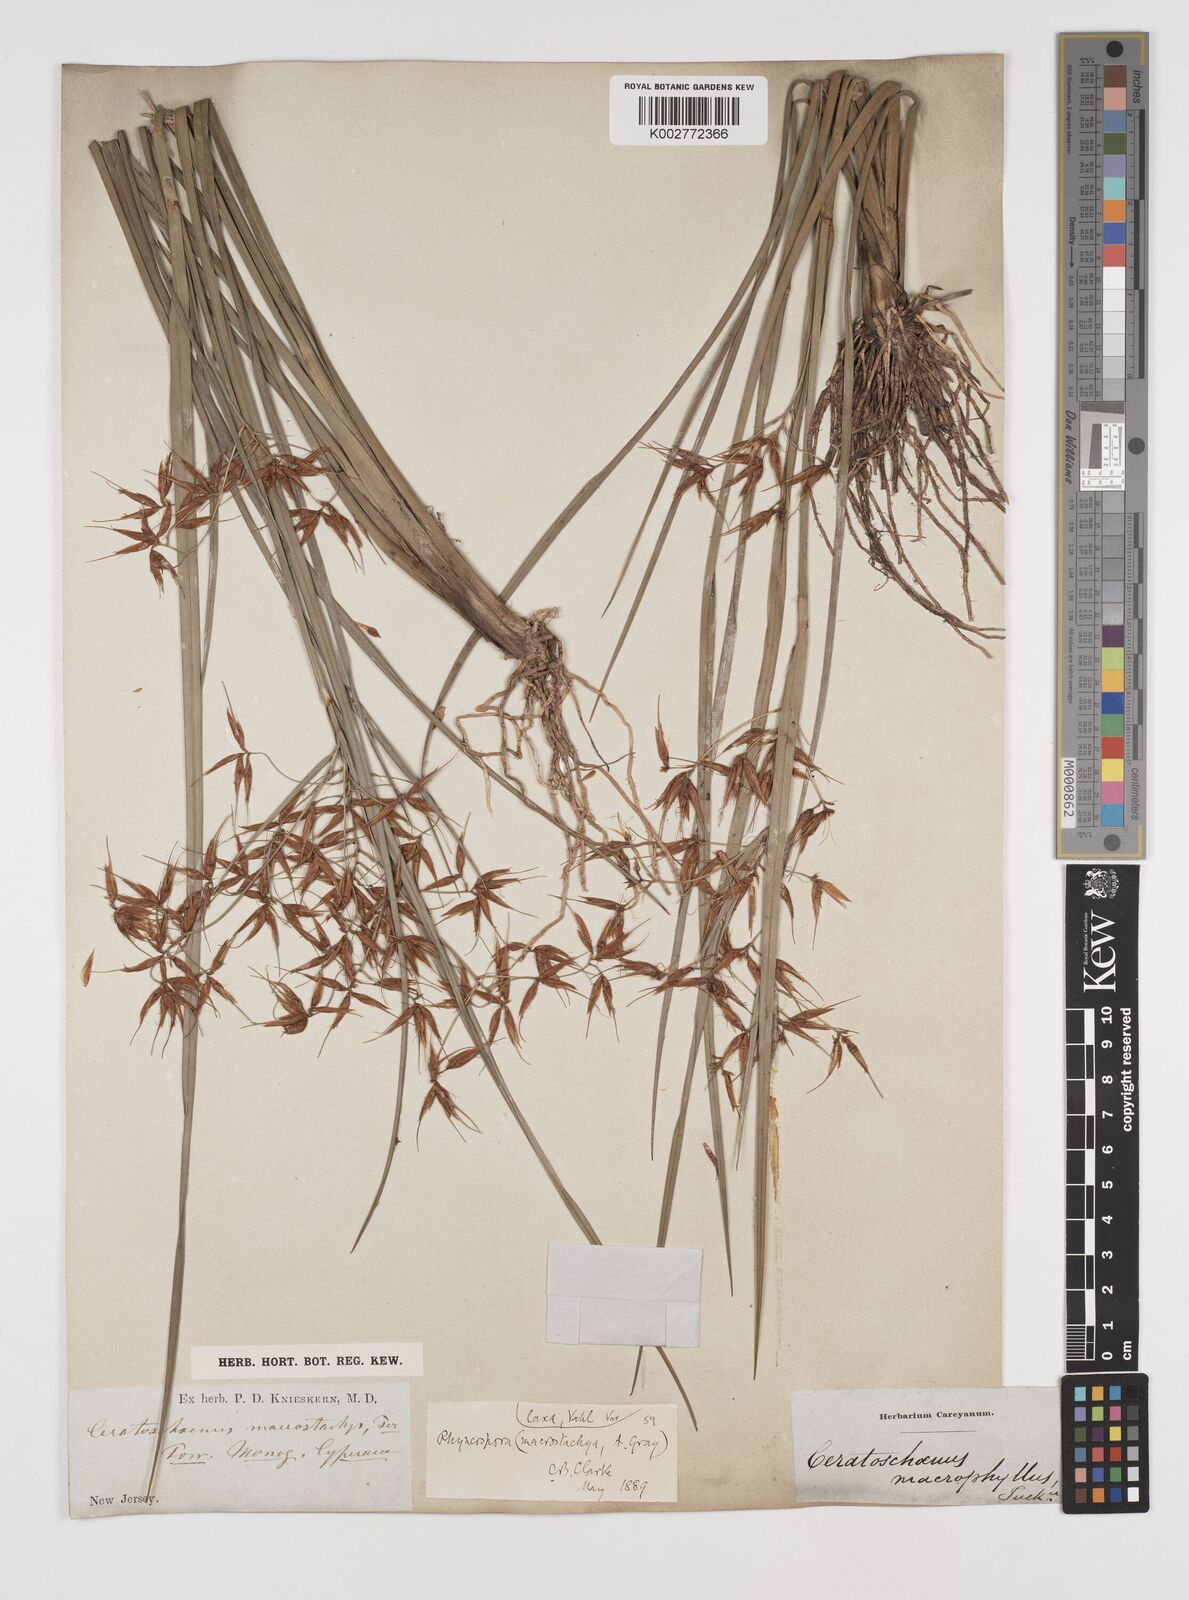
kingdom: Plantae
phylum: Tracheophyta
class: Liliopsida
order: Poales
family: Cyperaceae
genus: Rhynchospora
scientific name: Rhynchospora corniculata
